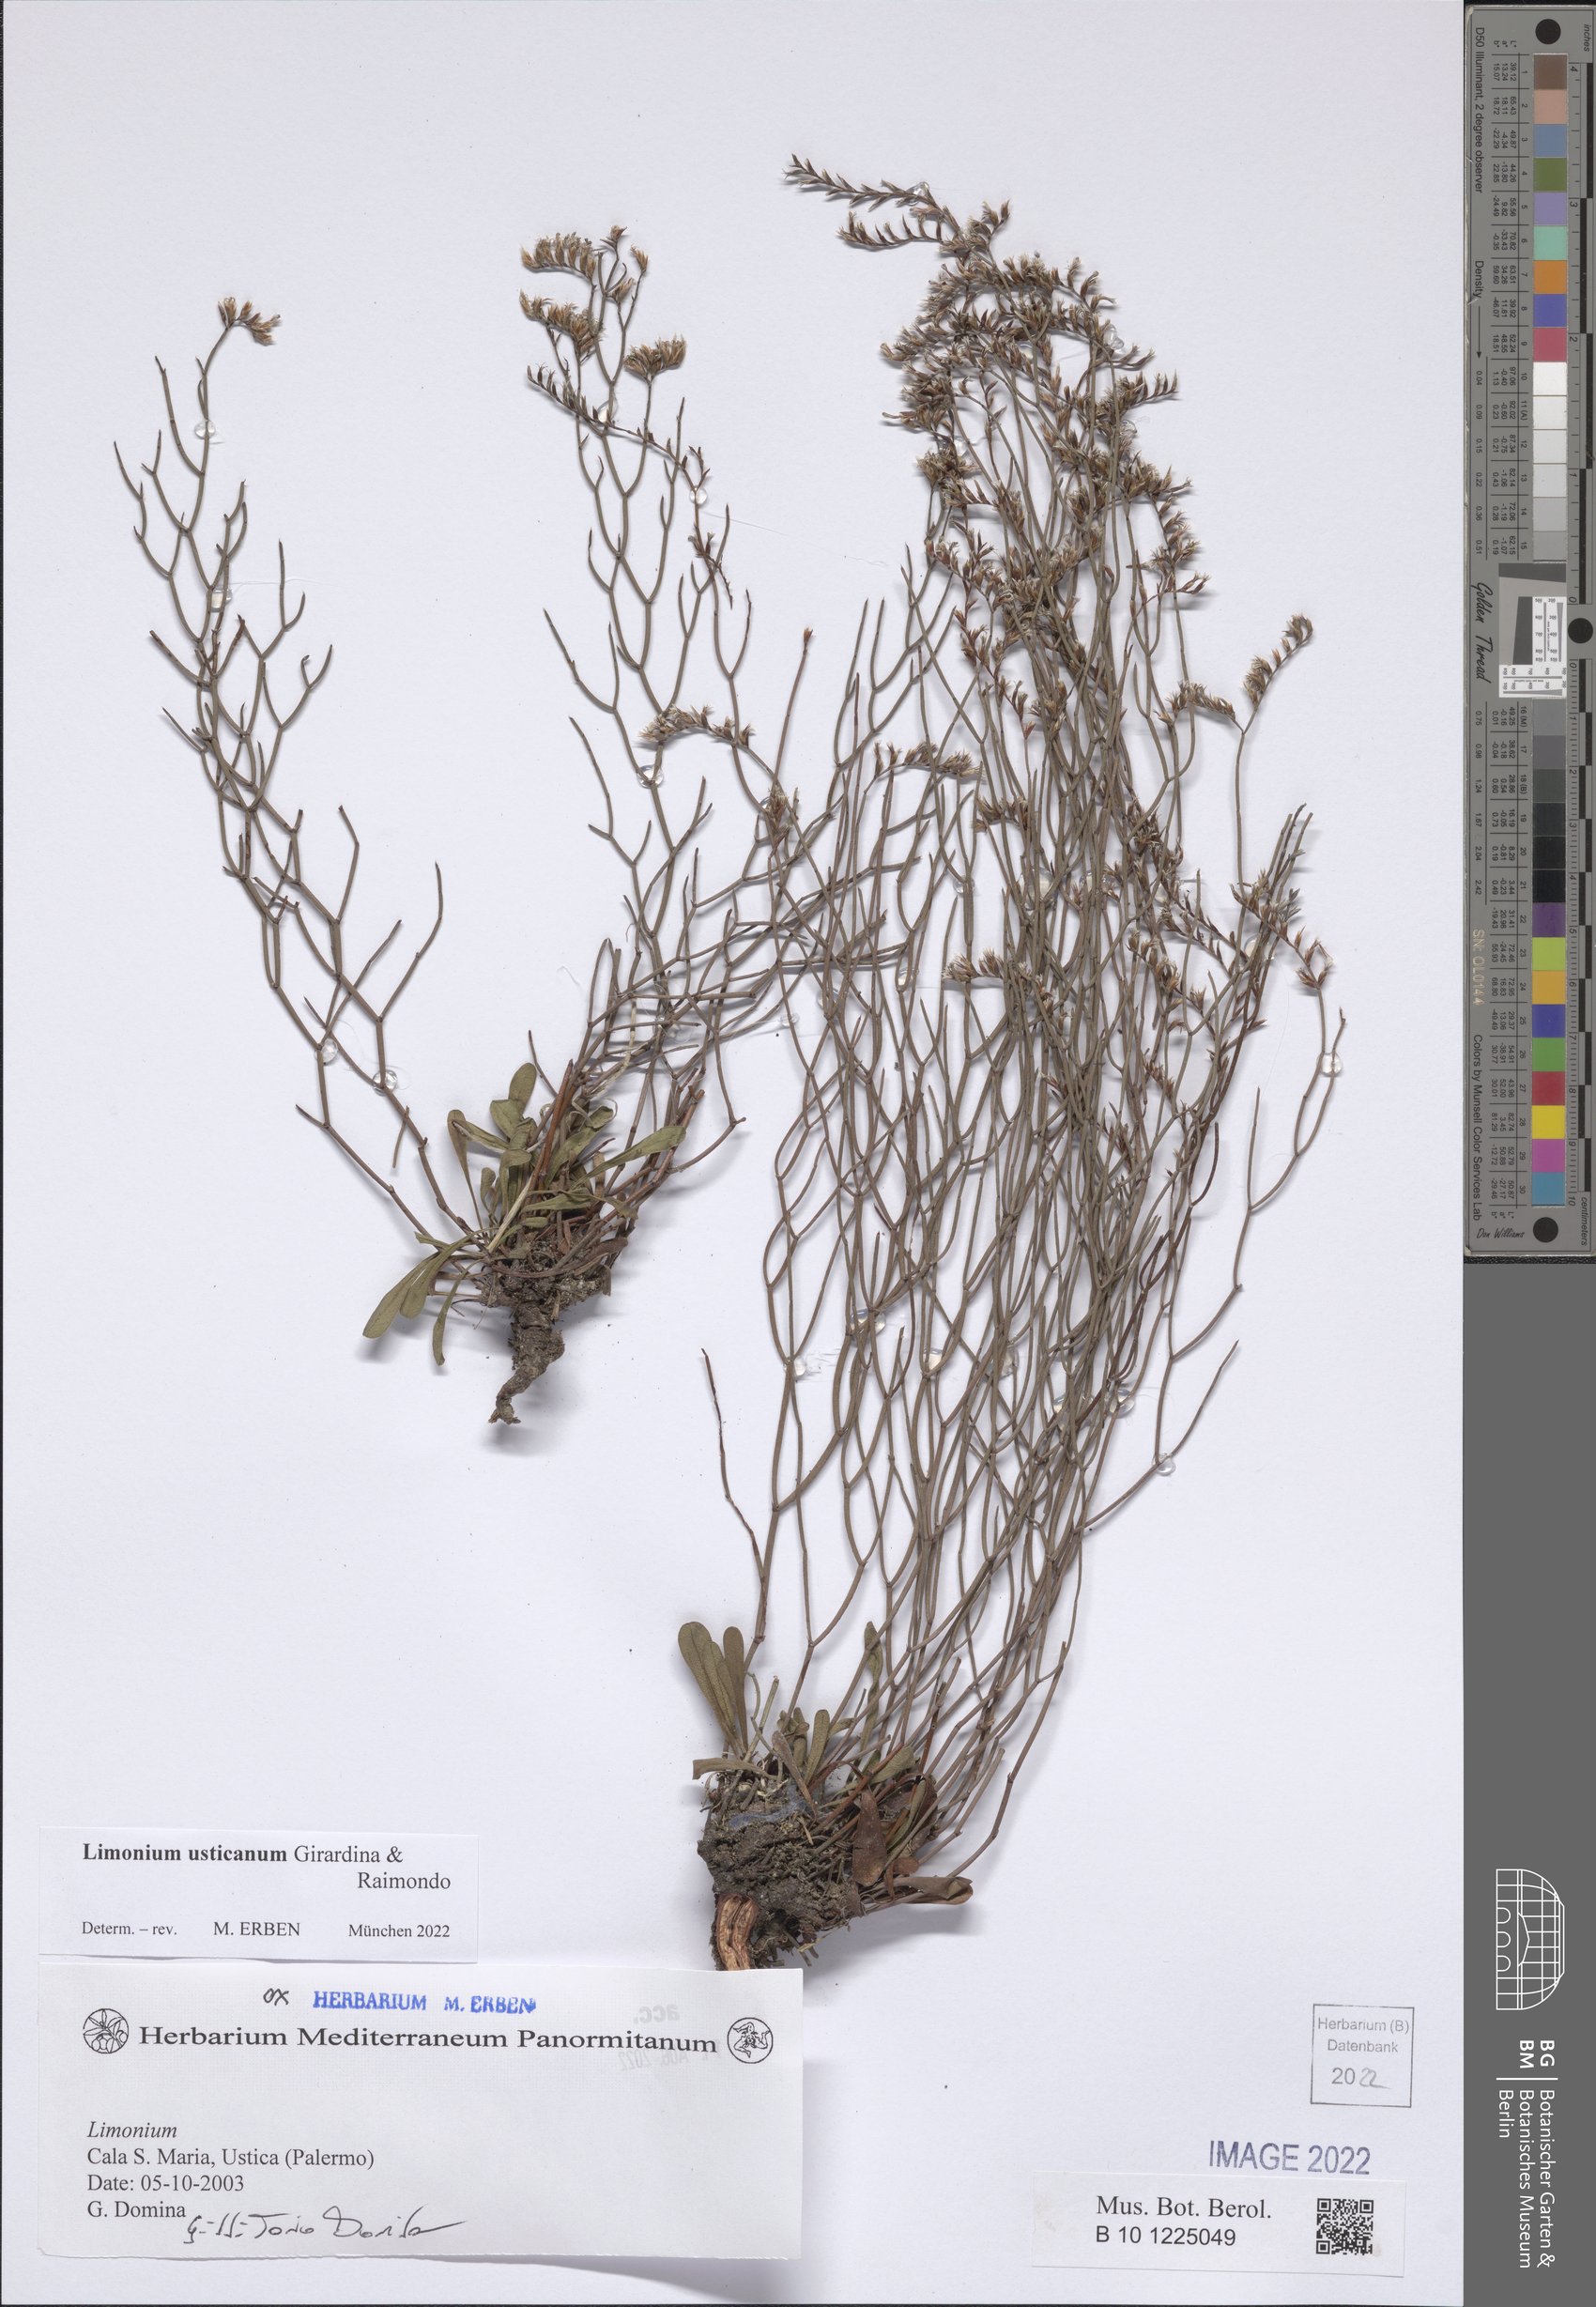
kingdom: Plantae
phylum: Tracheophyta
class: Magnoliopsida
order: Caryophyllales
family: Plumbaginaceae
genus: Limonium
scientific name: Limonium usticanum
